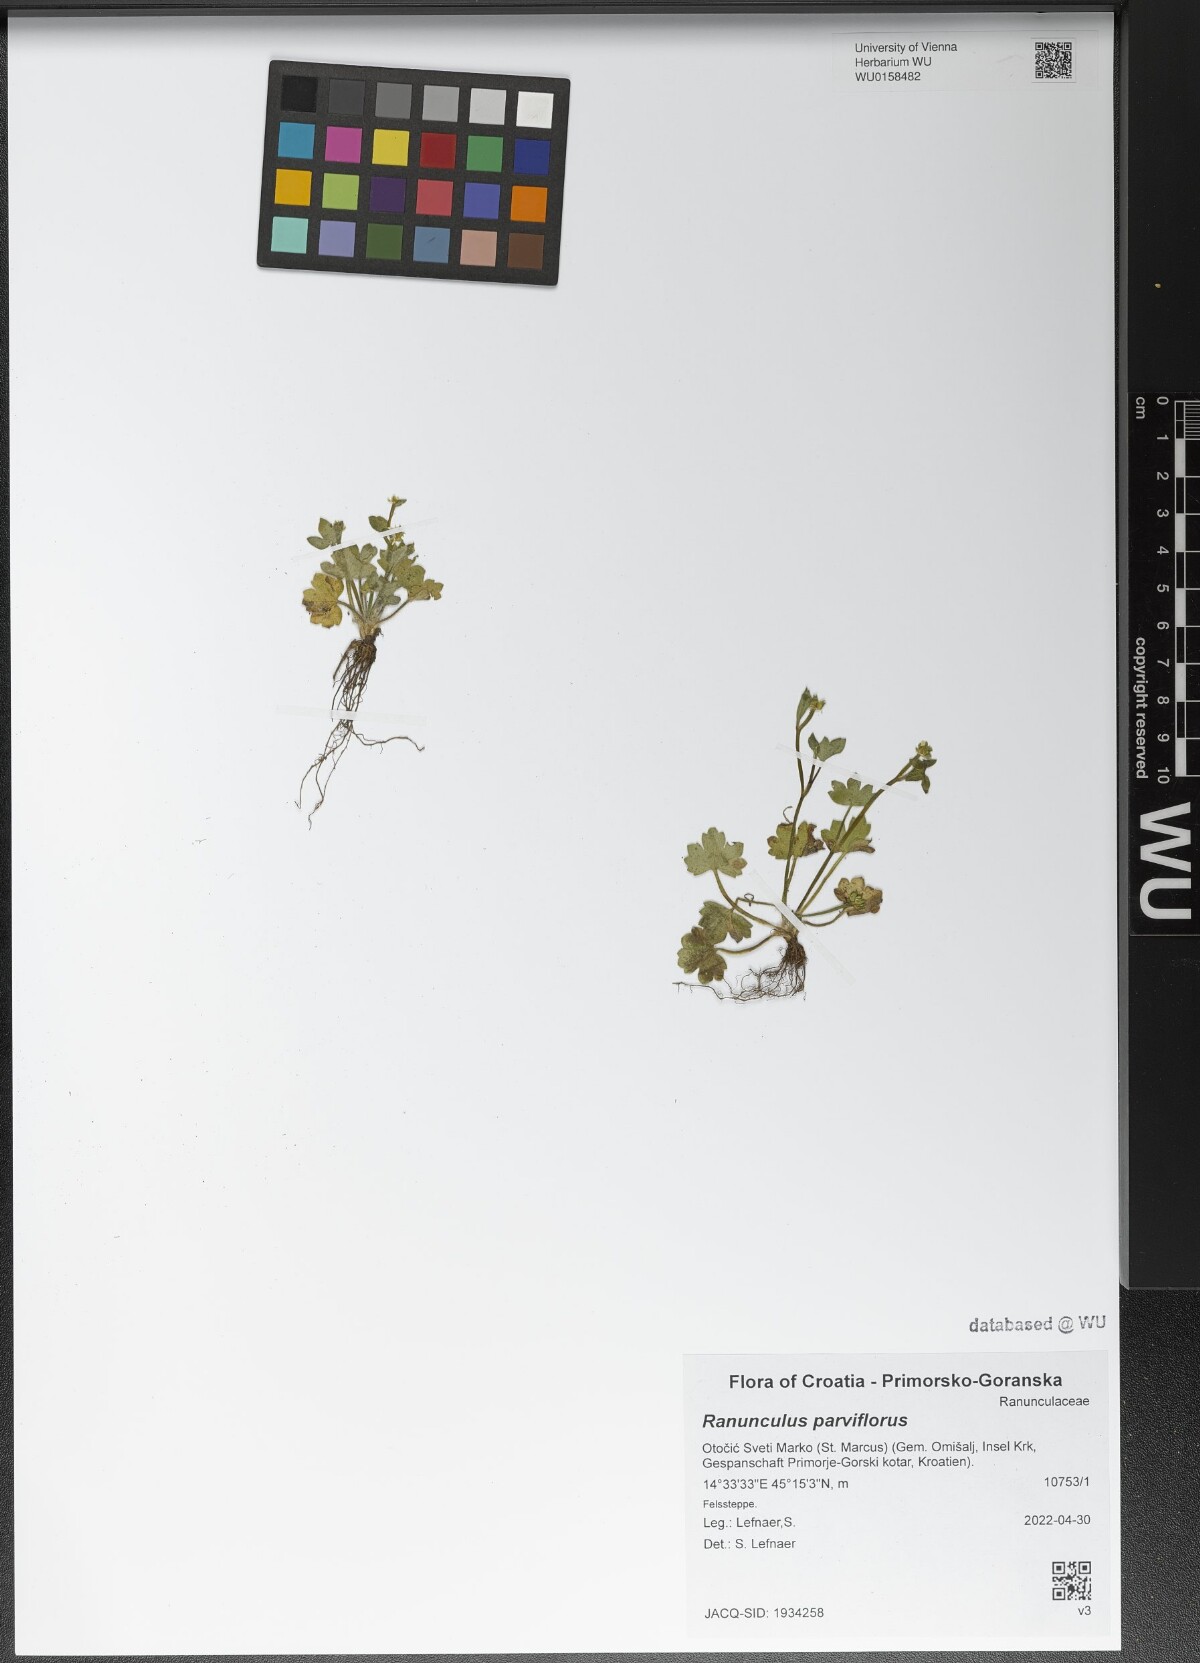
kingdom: Plantae
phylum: Tracheophyta
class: Magnoliopsida
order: Ranunculales
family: Ranunculaceae
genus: Ranunculus
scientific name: Ranunculus parviflorus
